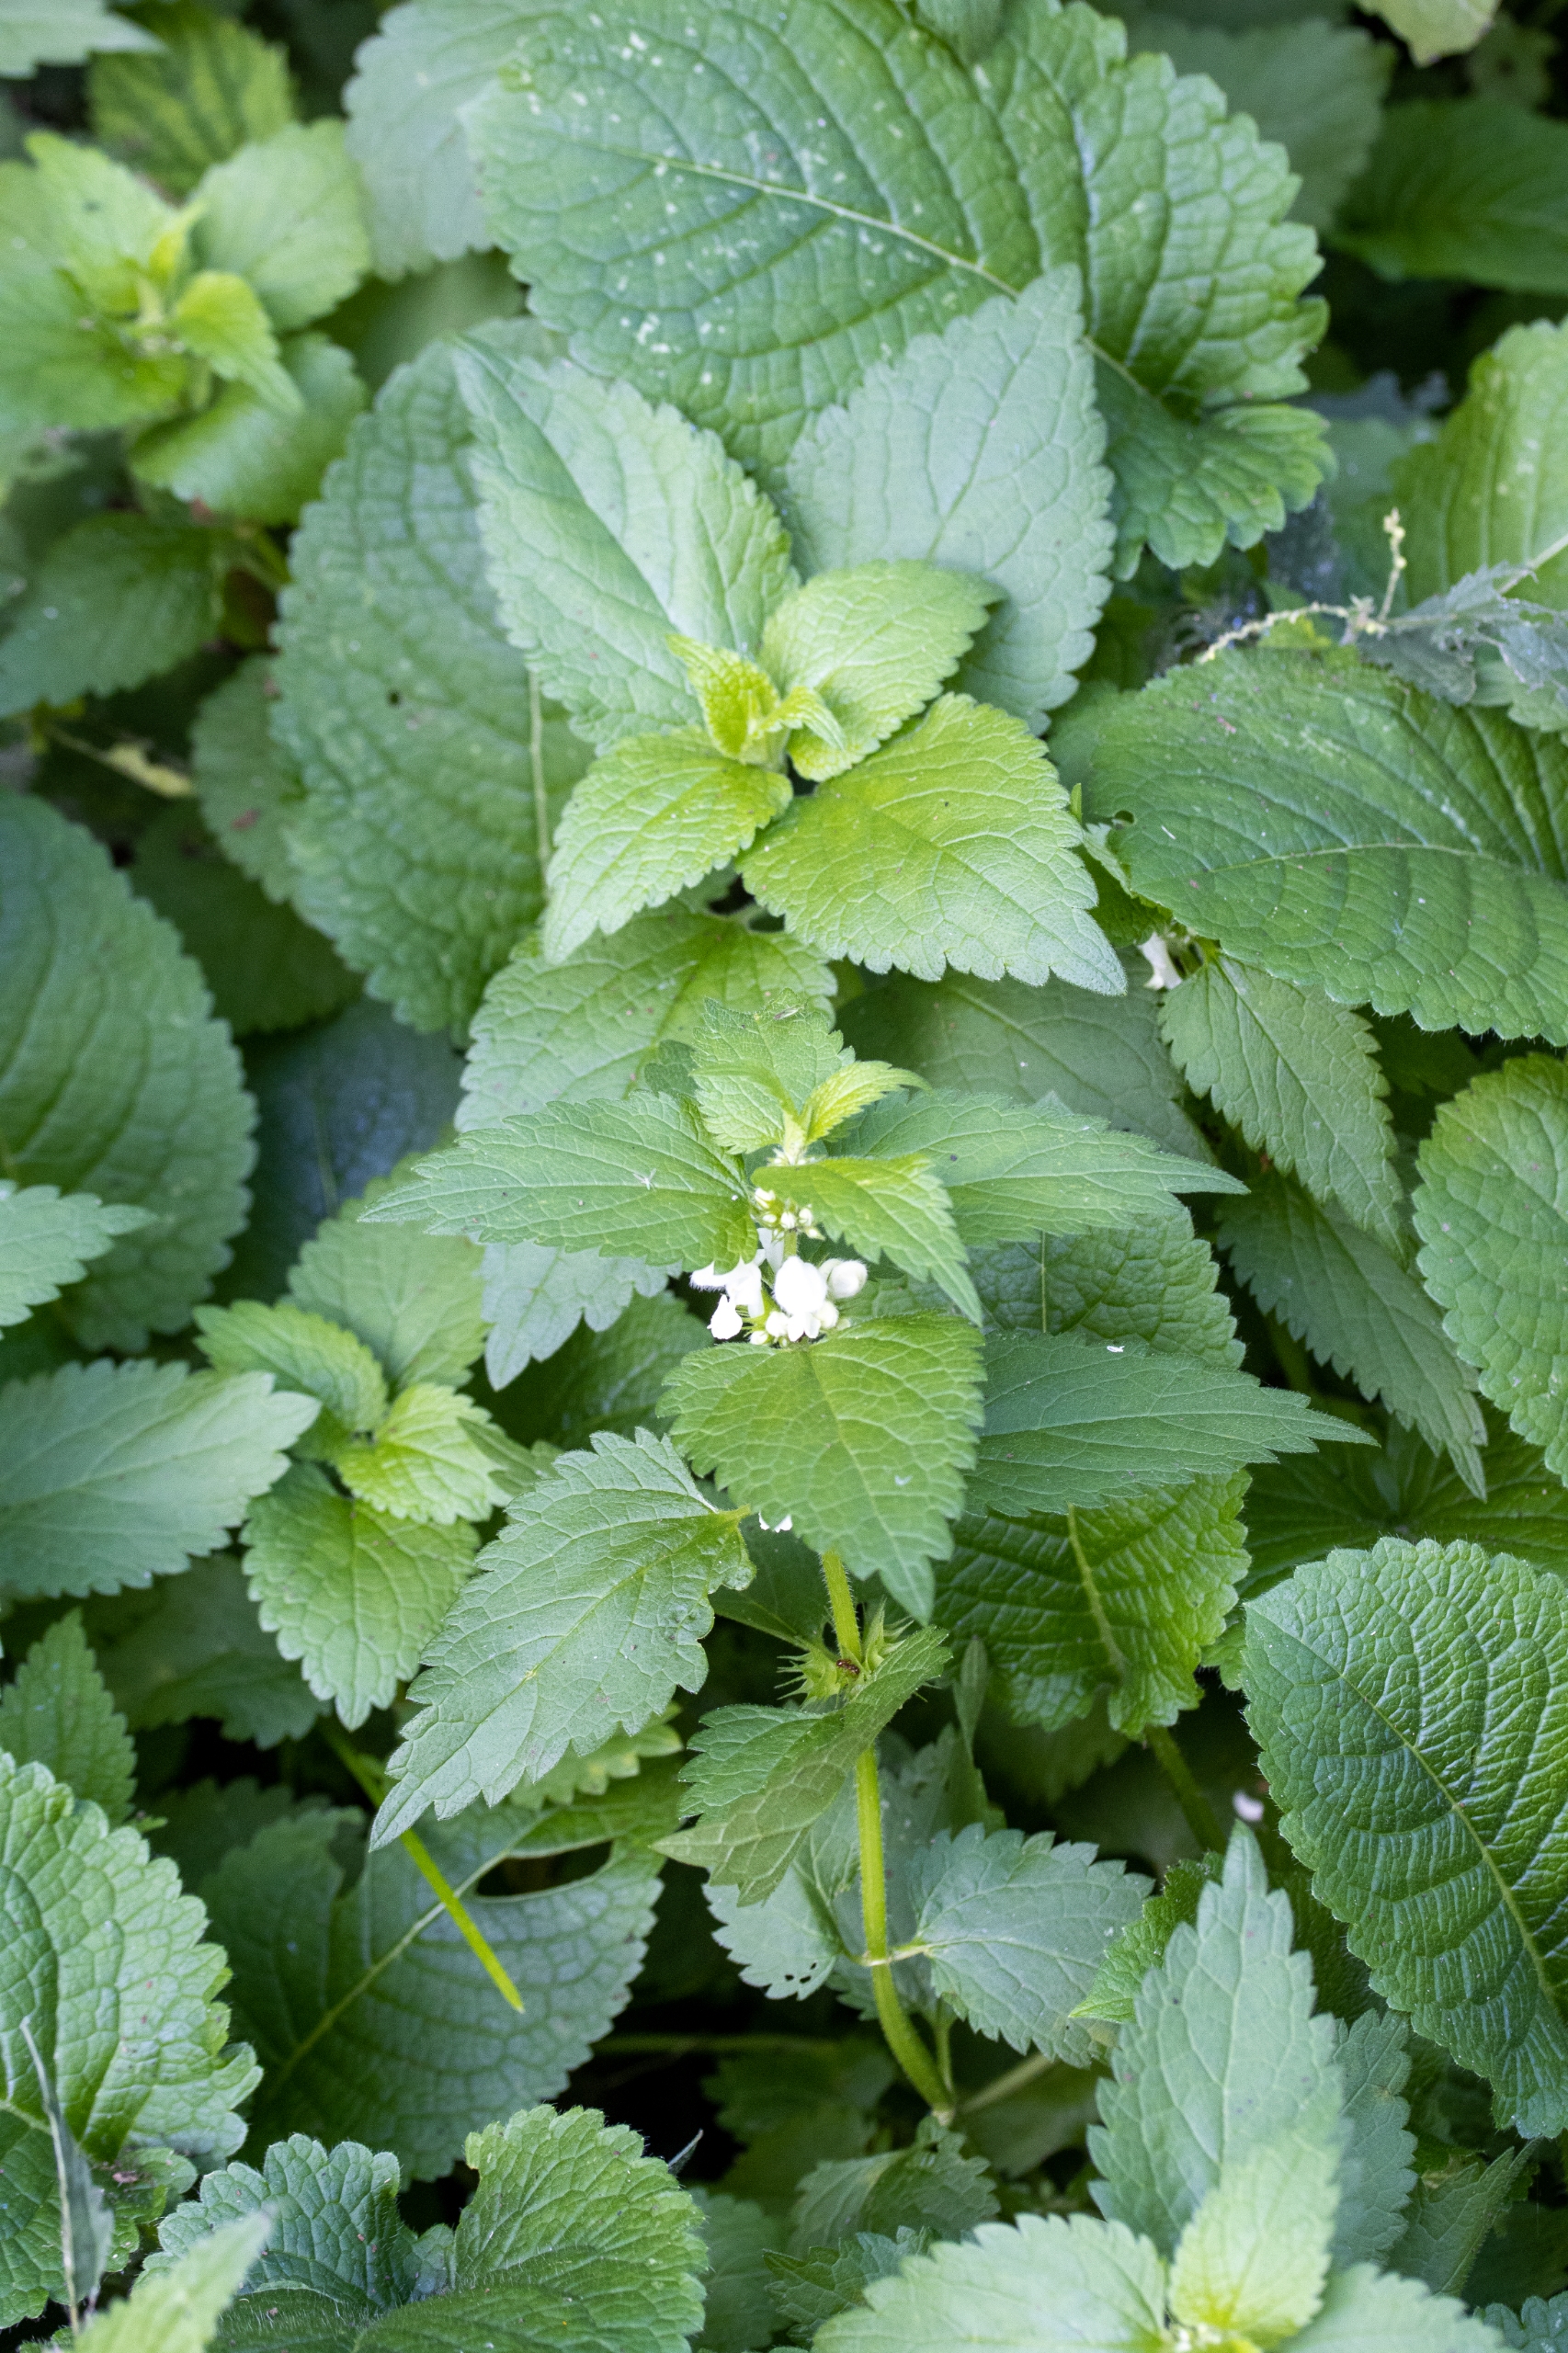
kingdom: Plantae
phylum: Tracheophyta
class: Magnoliopsida
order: Lamiales
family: Lamiaceae
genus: Lamium
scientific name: Lamium album
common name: Døvnælde
